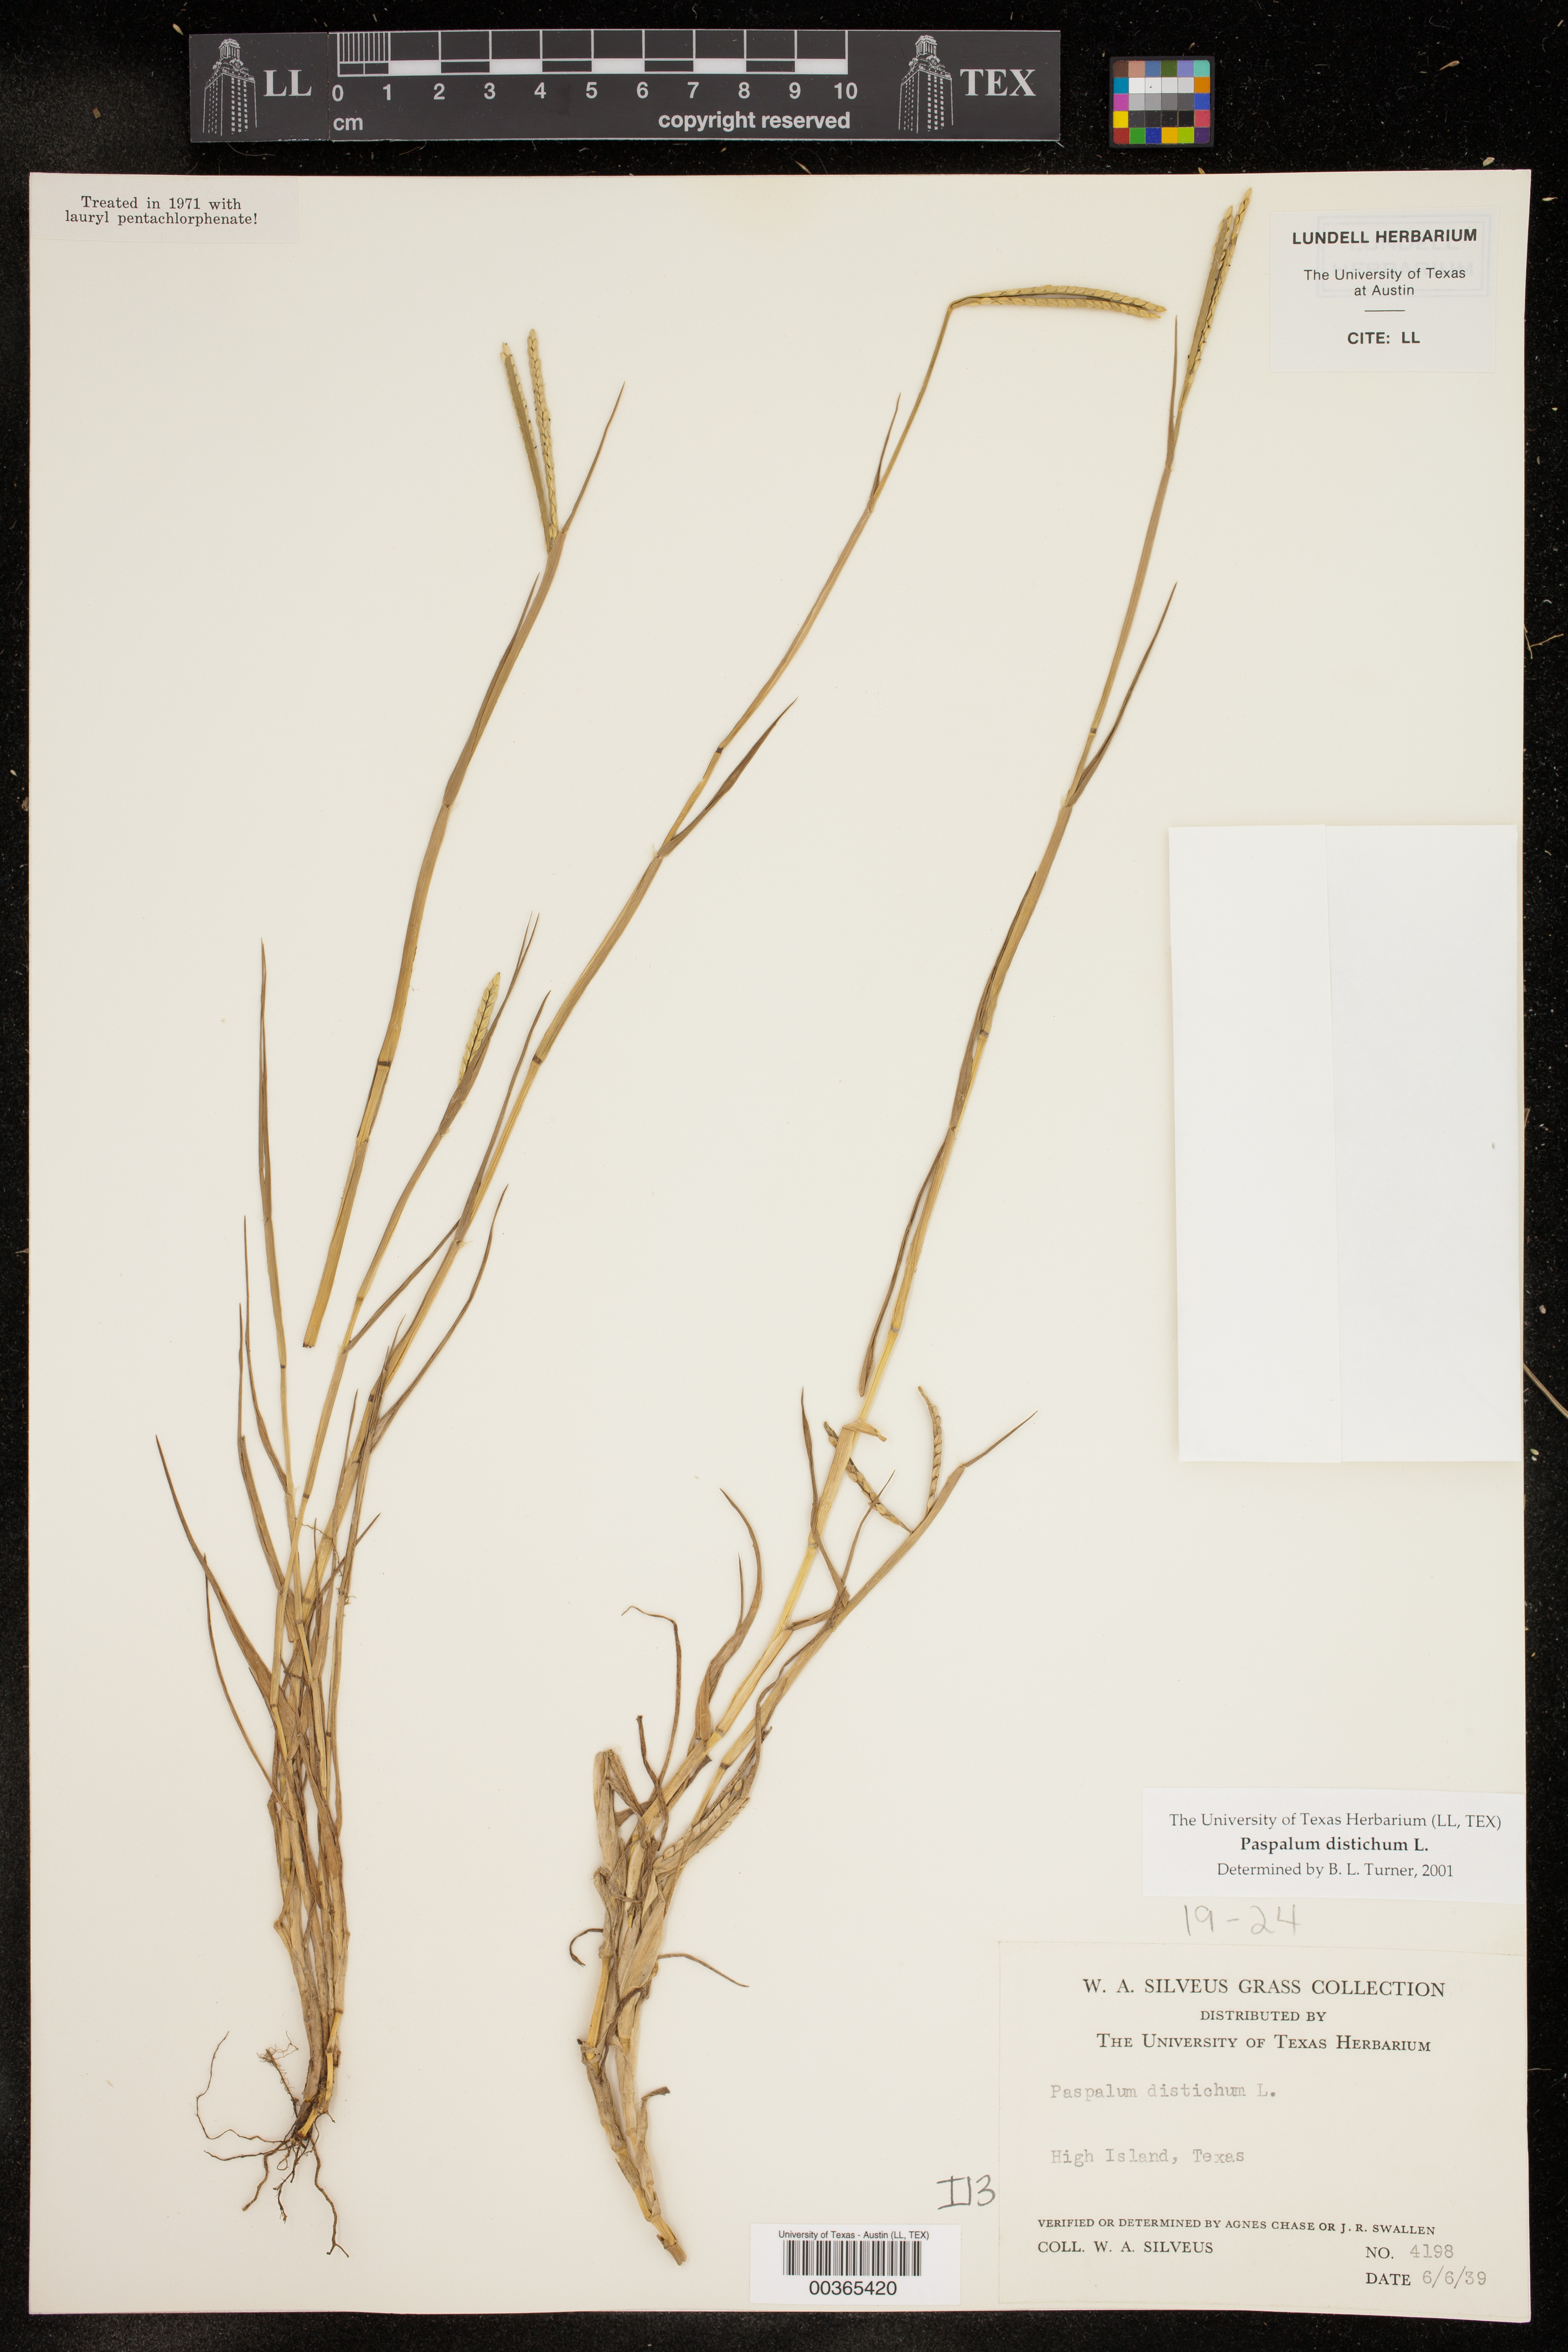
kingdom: Plantae
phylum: Tracheophyta
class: Liliopsida
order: Poales
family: Poaceae
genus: Paspalum
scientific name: Paspalum distichum
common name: Knotgrass
